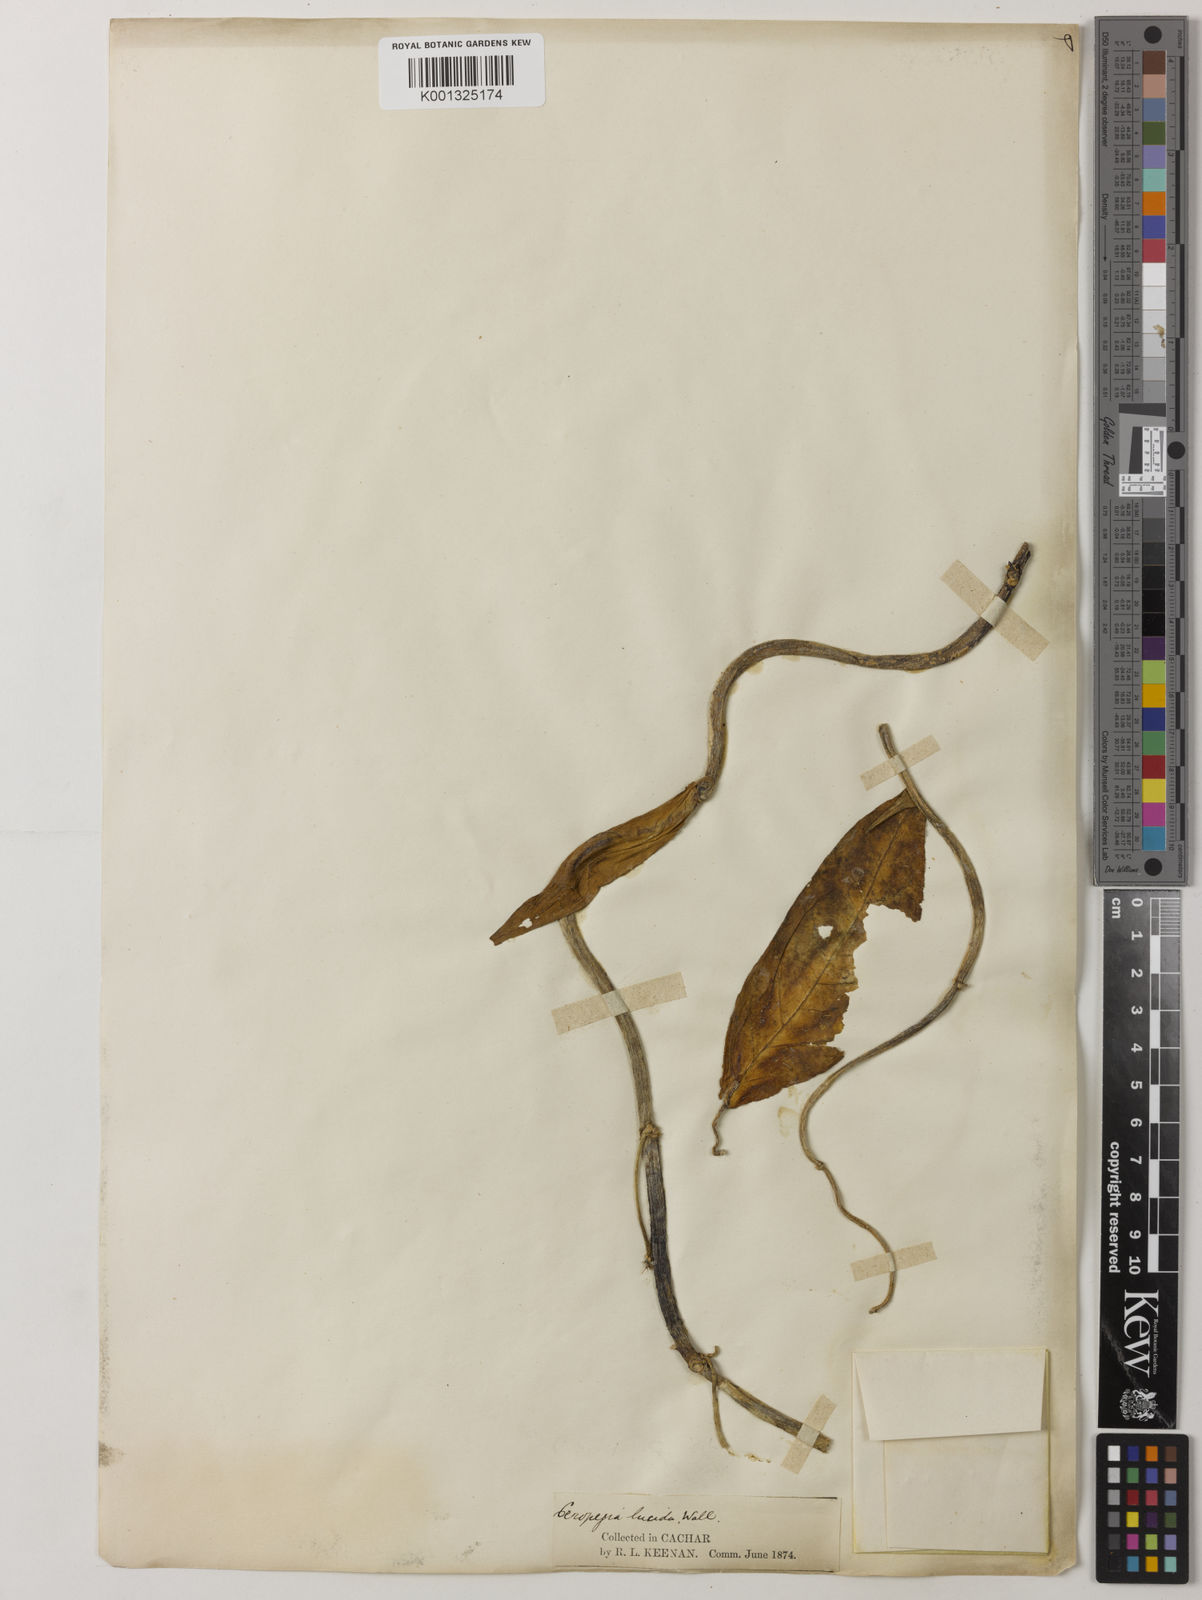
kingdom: Plantae
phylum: Tracheophyta
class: Magnoliopsida
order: Gentianales
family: Apocynaceae
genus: Ceropegia
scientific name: Ceropegia lucida
